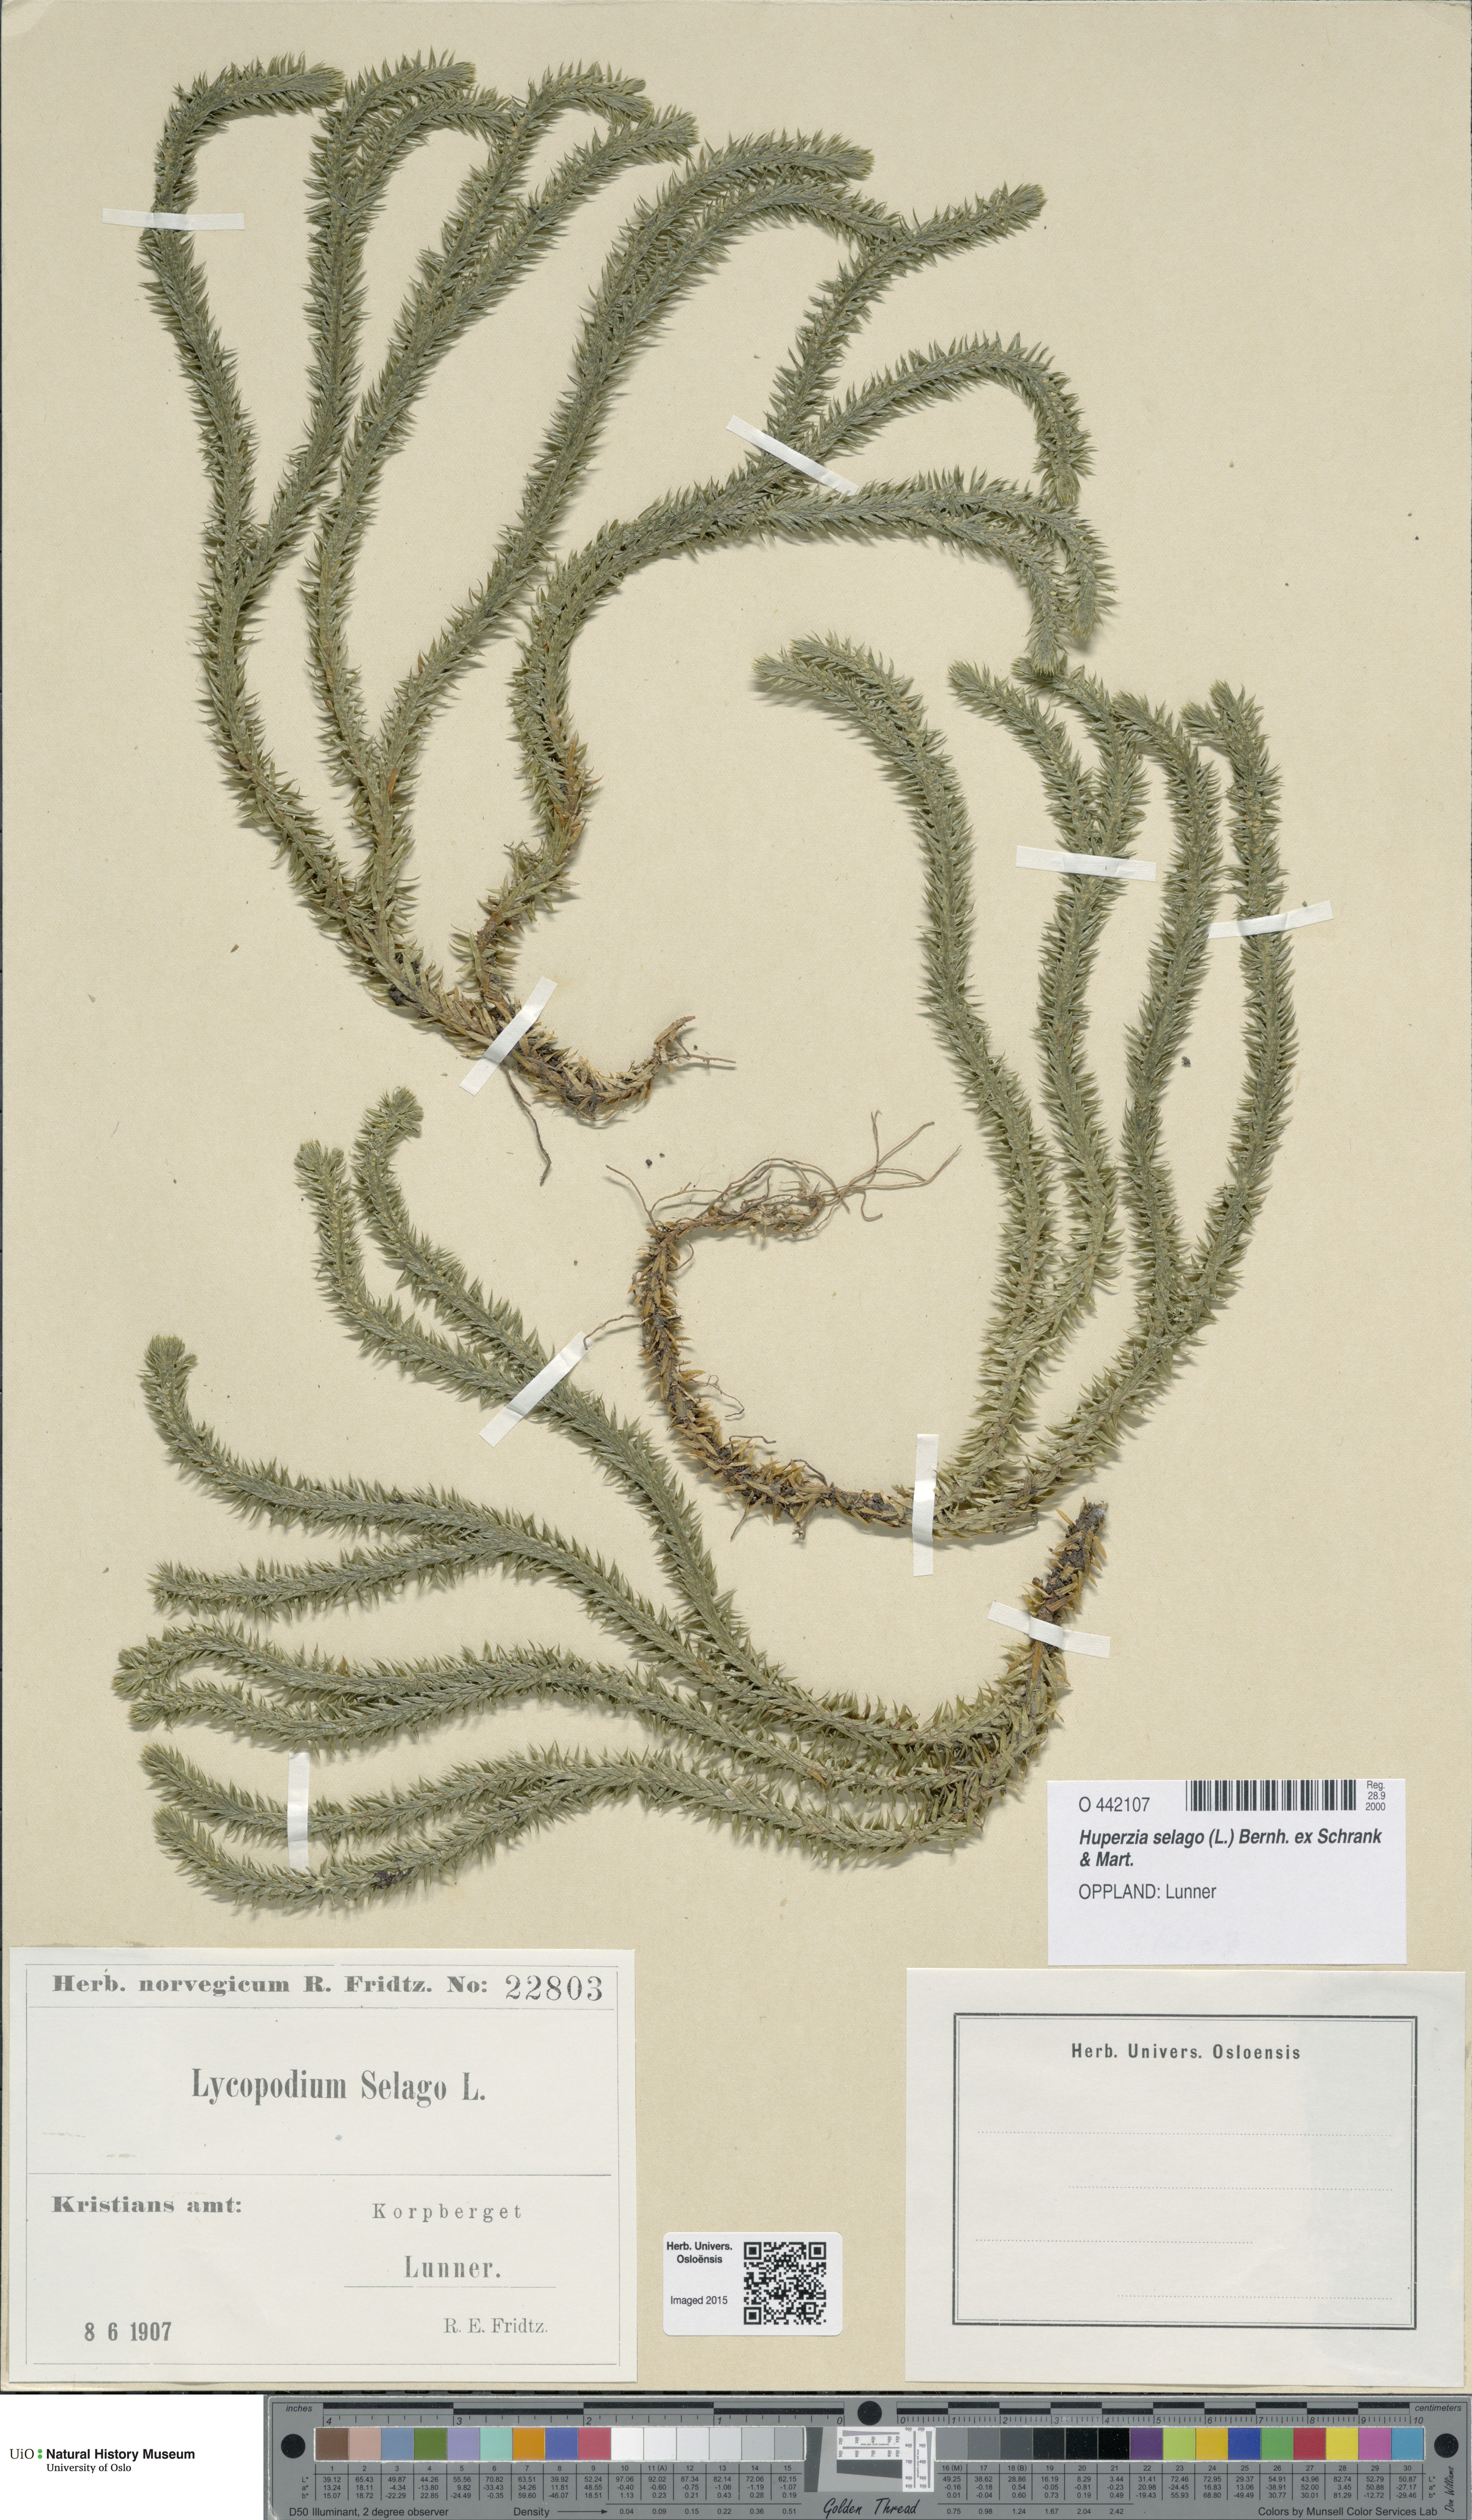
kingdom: Plantae
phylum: Tracheophyta
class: Lycopodiopsida
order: Lycopodiales
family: Lycopodiaceae
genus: Huperzia
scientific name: Huperzia selago
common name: Northern firmoss
